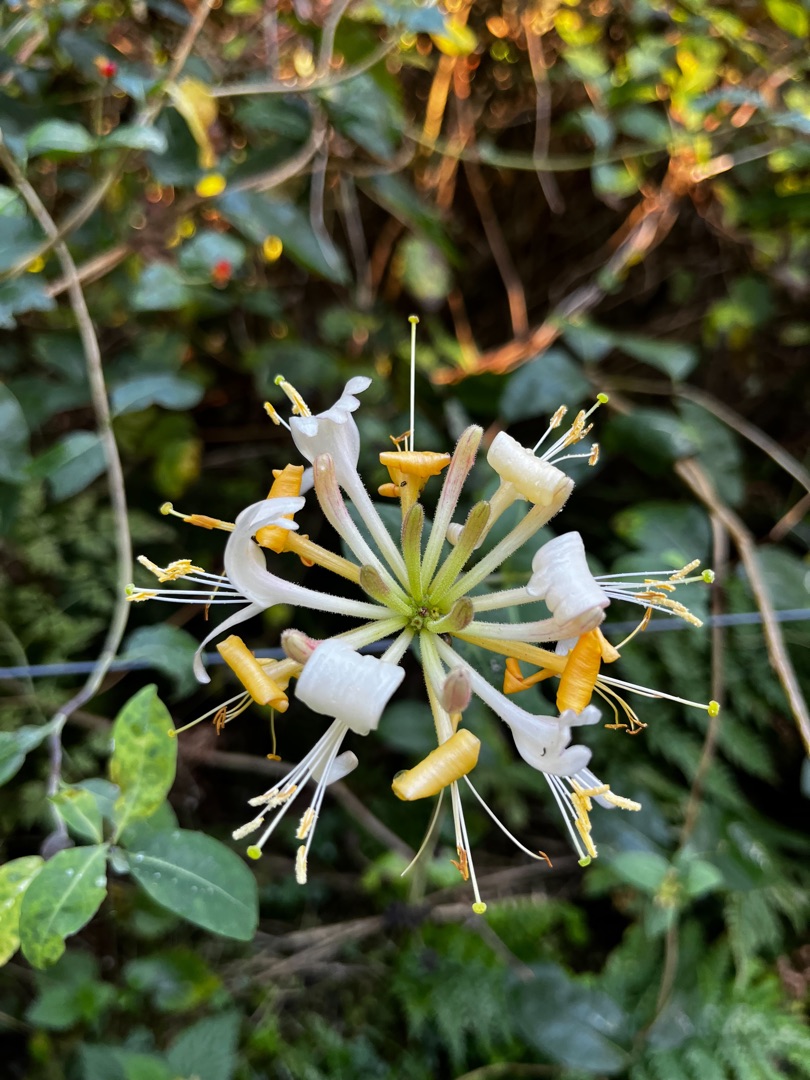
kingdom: Plantae
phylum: Tracheophyta
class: Magnoliopsida
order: Dipsacales
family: Caprifoliaceae
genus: Lonicera
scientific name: Lonicera periclymenum
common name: Almindelig gedeblad
